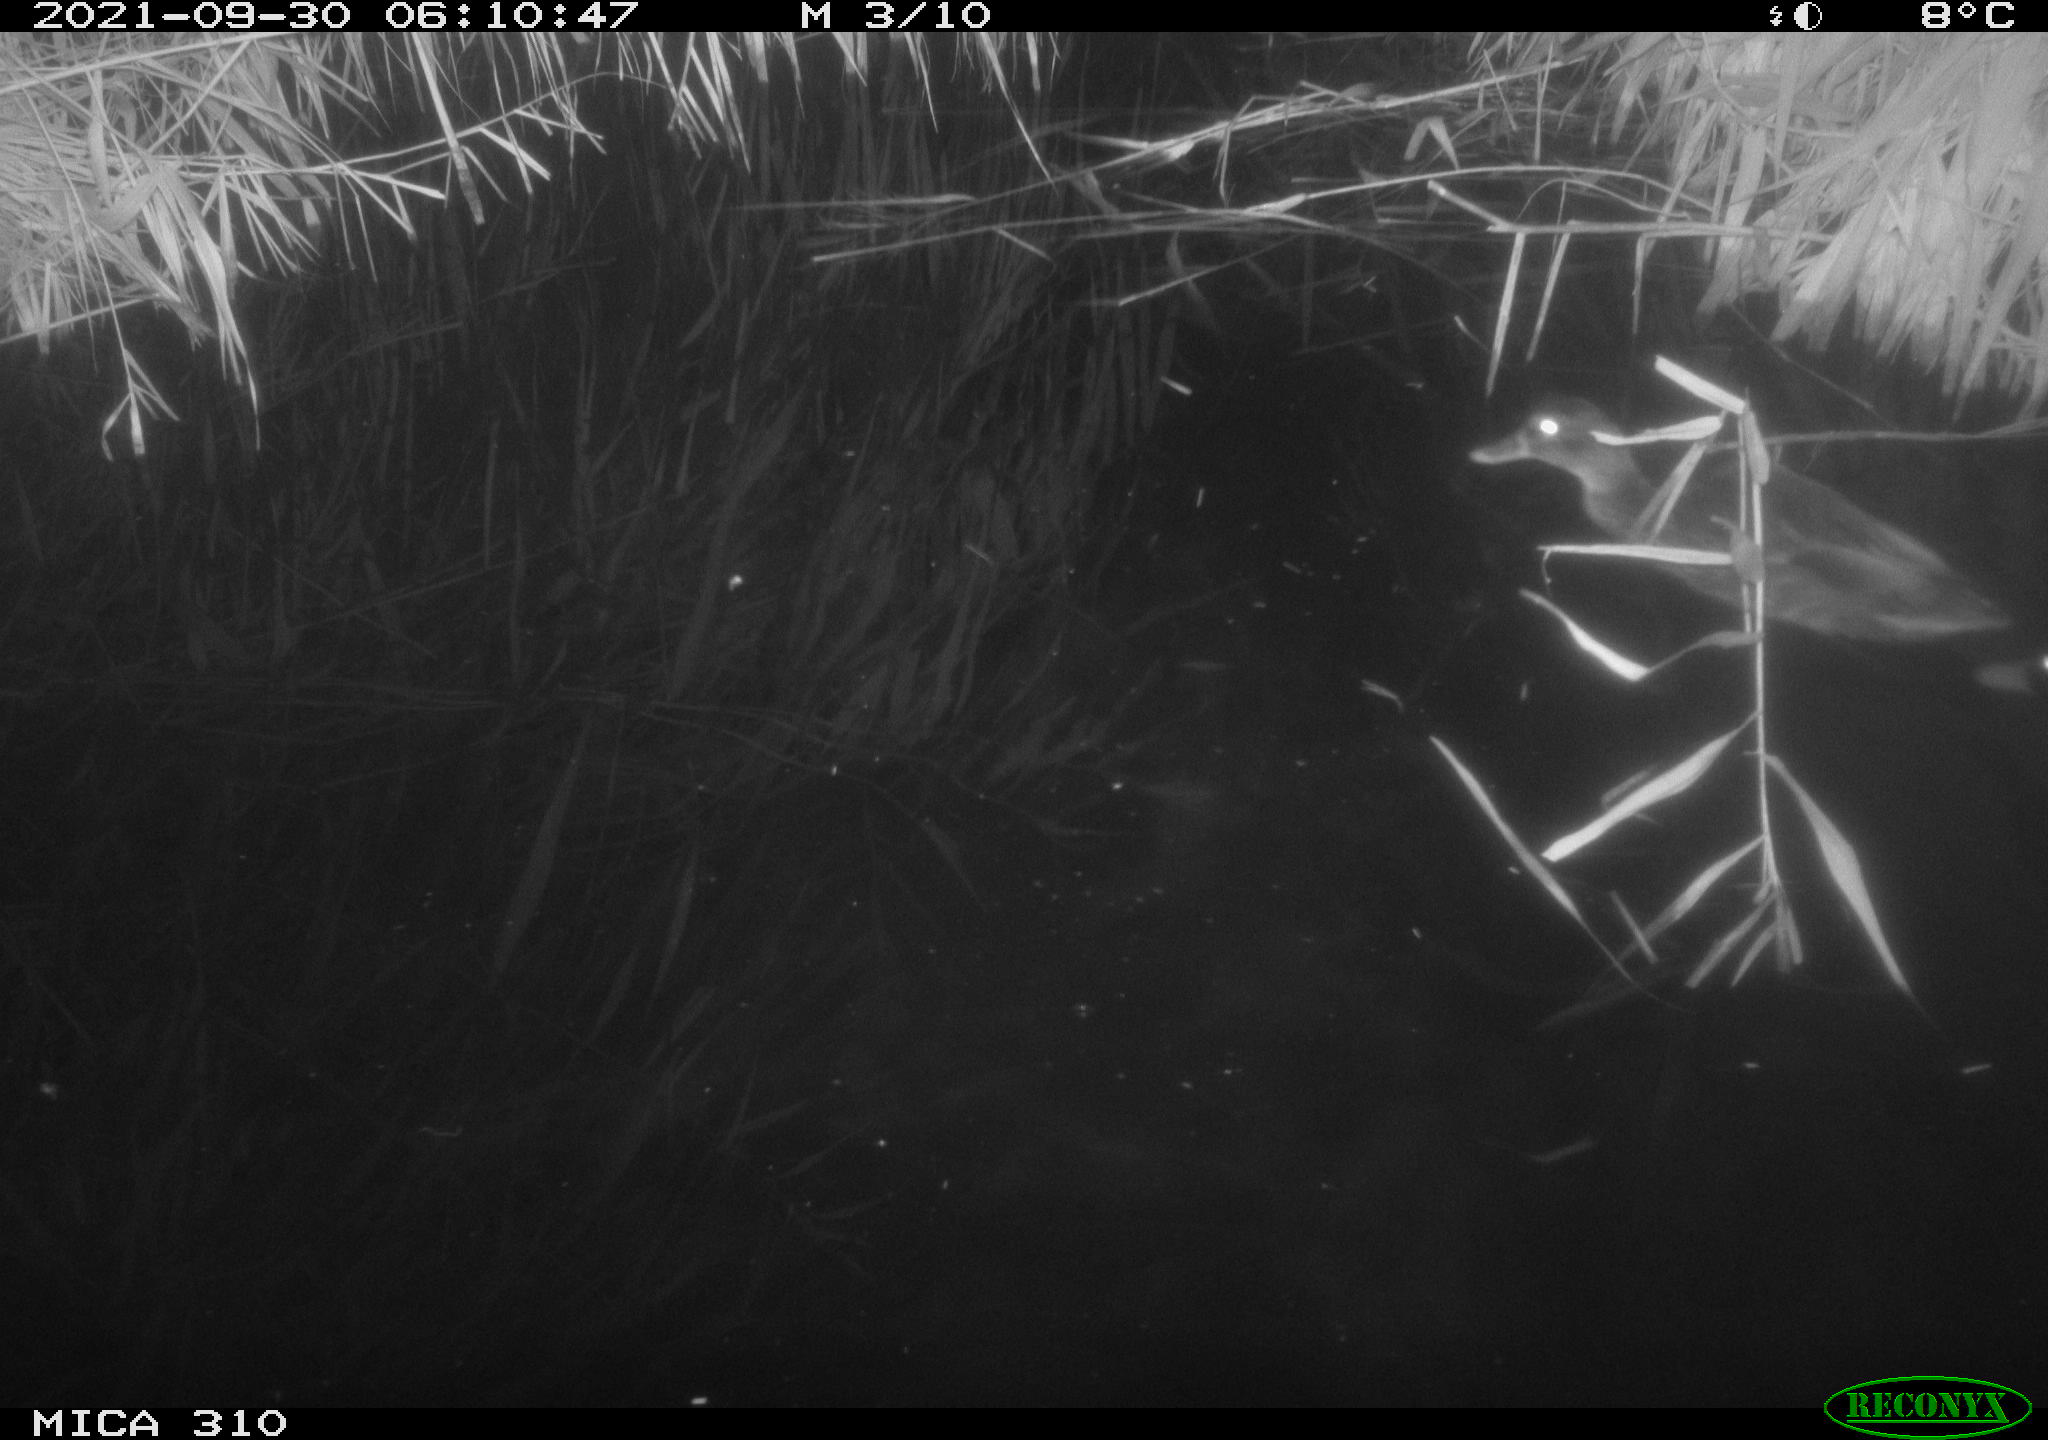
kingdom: Animalia
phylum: Chordata
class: Aves
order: Anseriformes
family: Anatidae
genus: Anas
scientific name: Anas platyrhynchos
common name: Mallard
